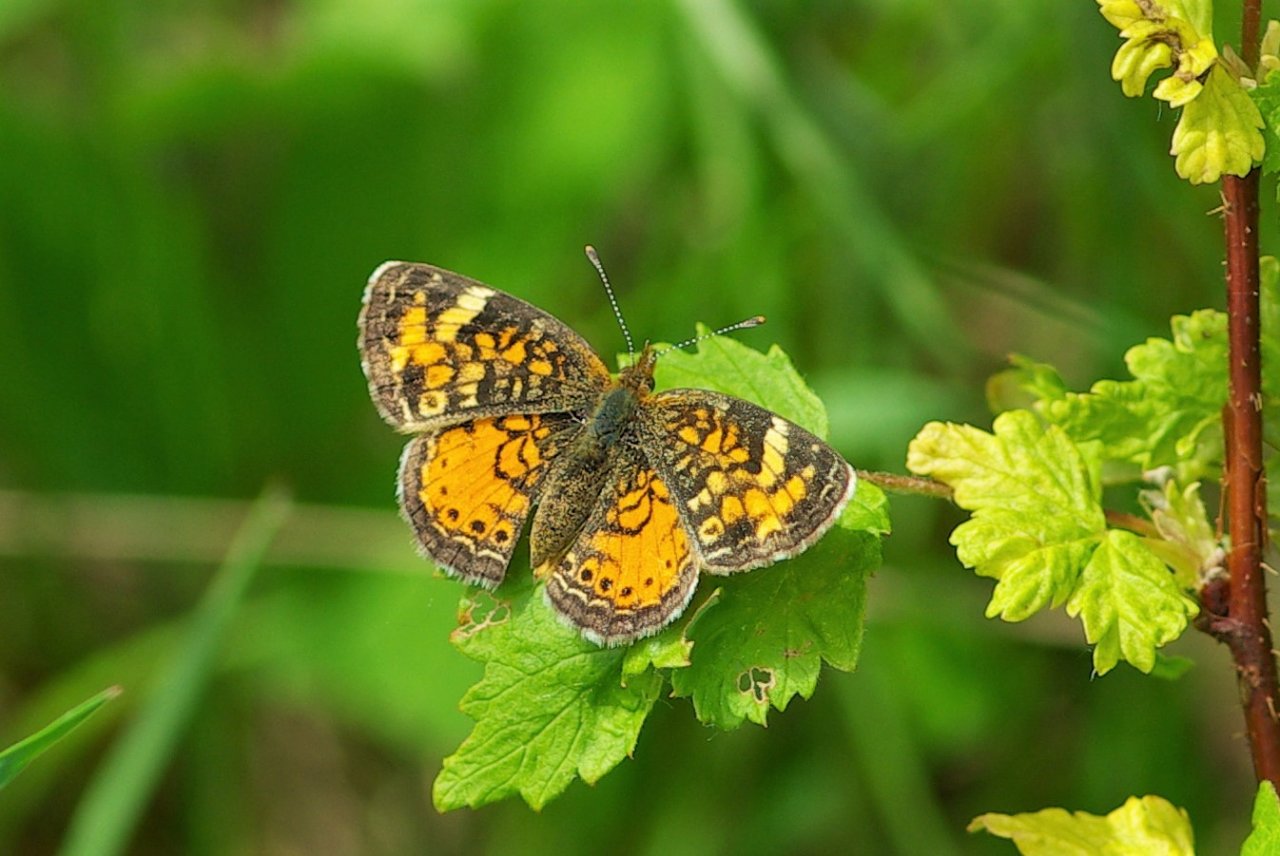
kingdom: Animalia
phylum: Arthropoda
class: Insecta
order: Lepidoptera
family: Nymphalidae
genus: Phyciodes
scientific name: Phyciodes tharos
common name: Northern Crescent
